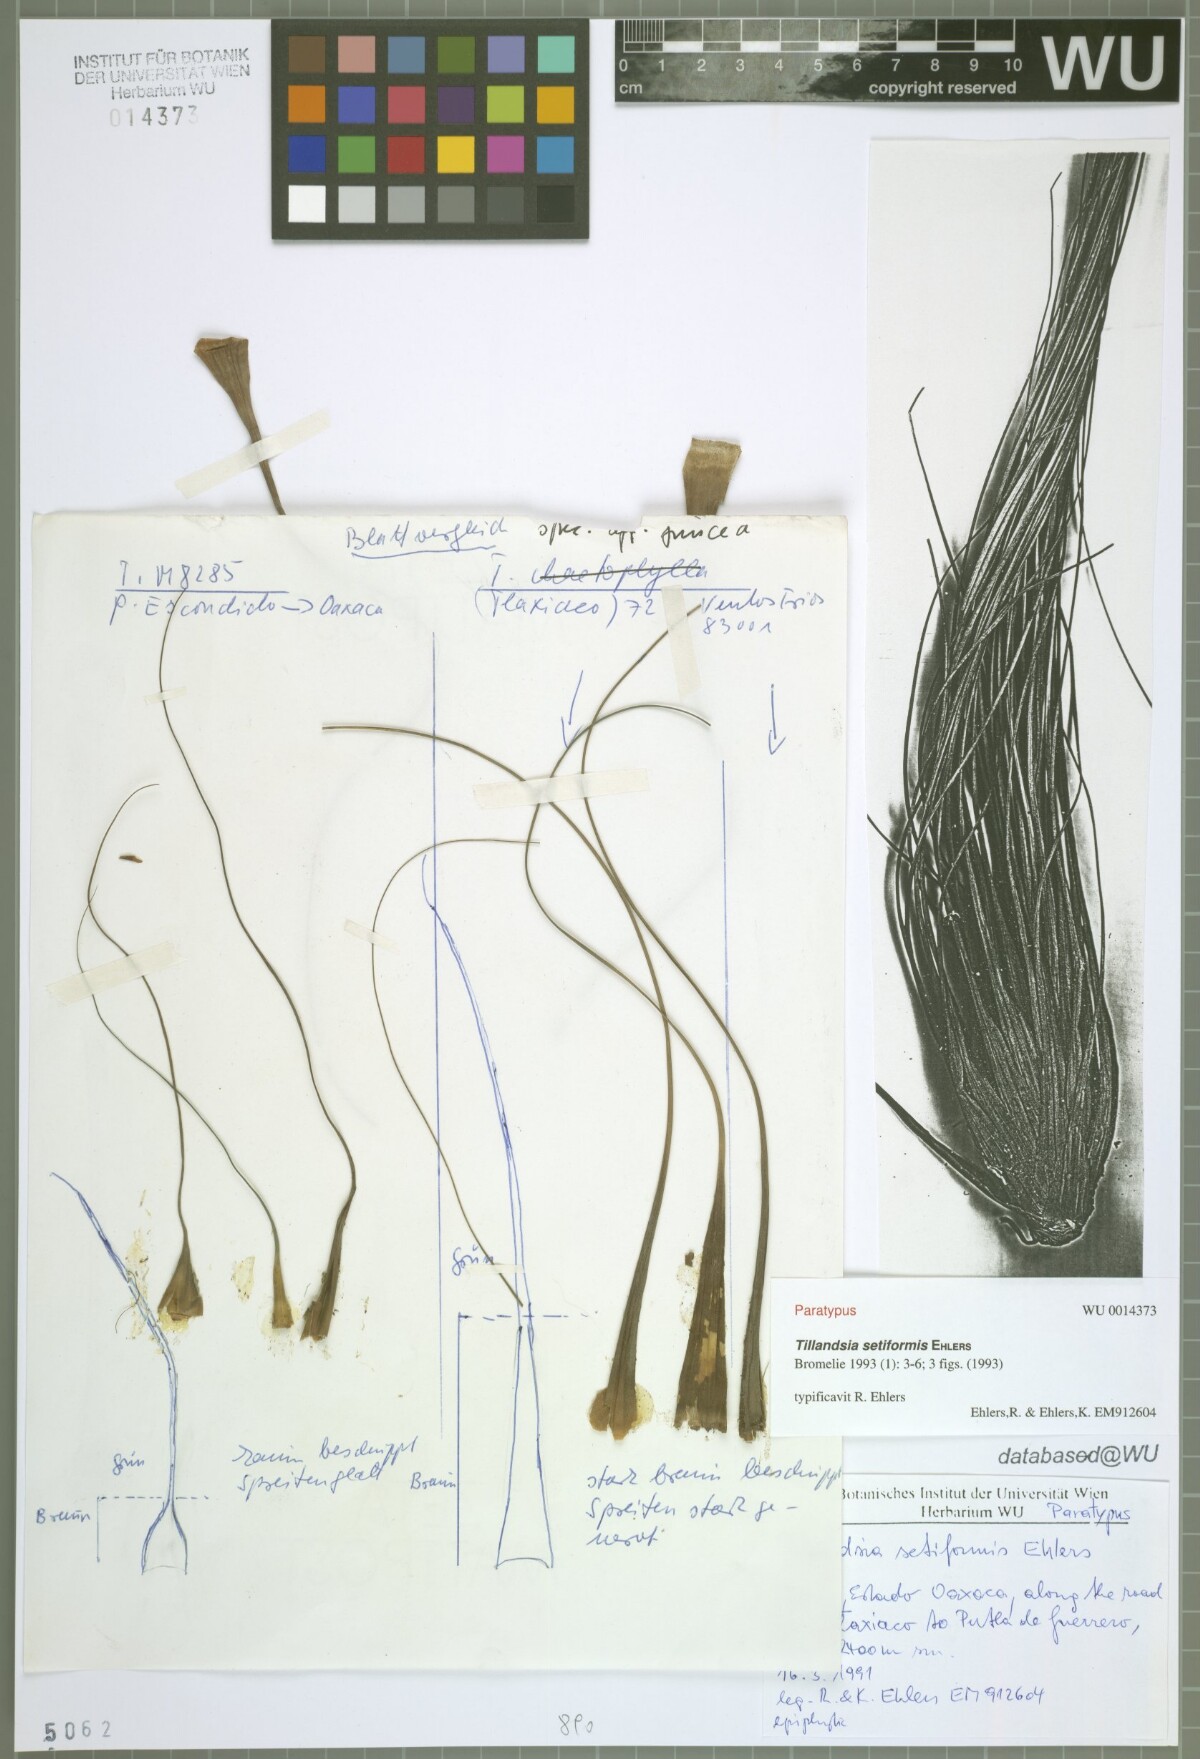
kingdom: Plantae
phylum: Tracheophyta
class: Liliopsida
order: Poales
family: Bromeliaceae
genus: Tillandsia
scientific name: Tillandsia setiformis
